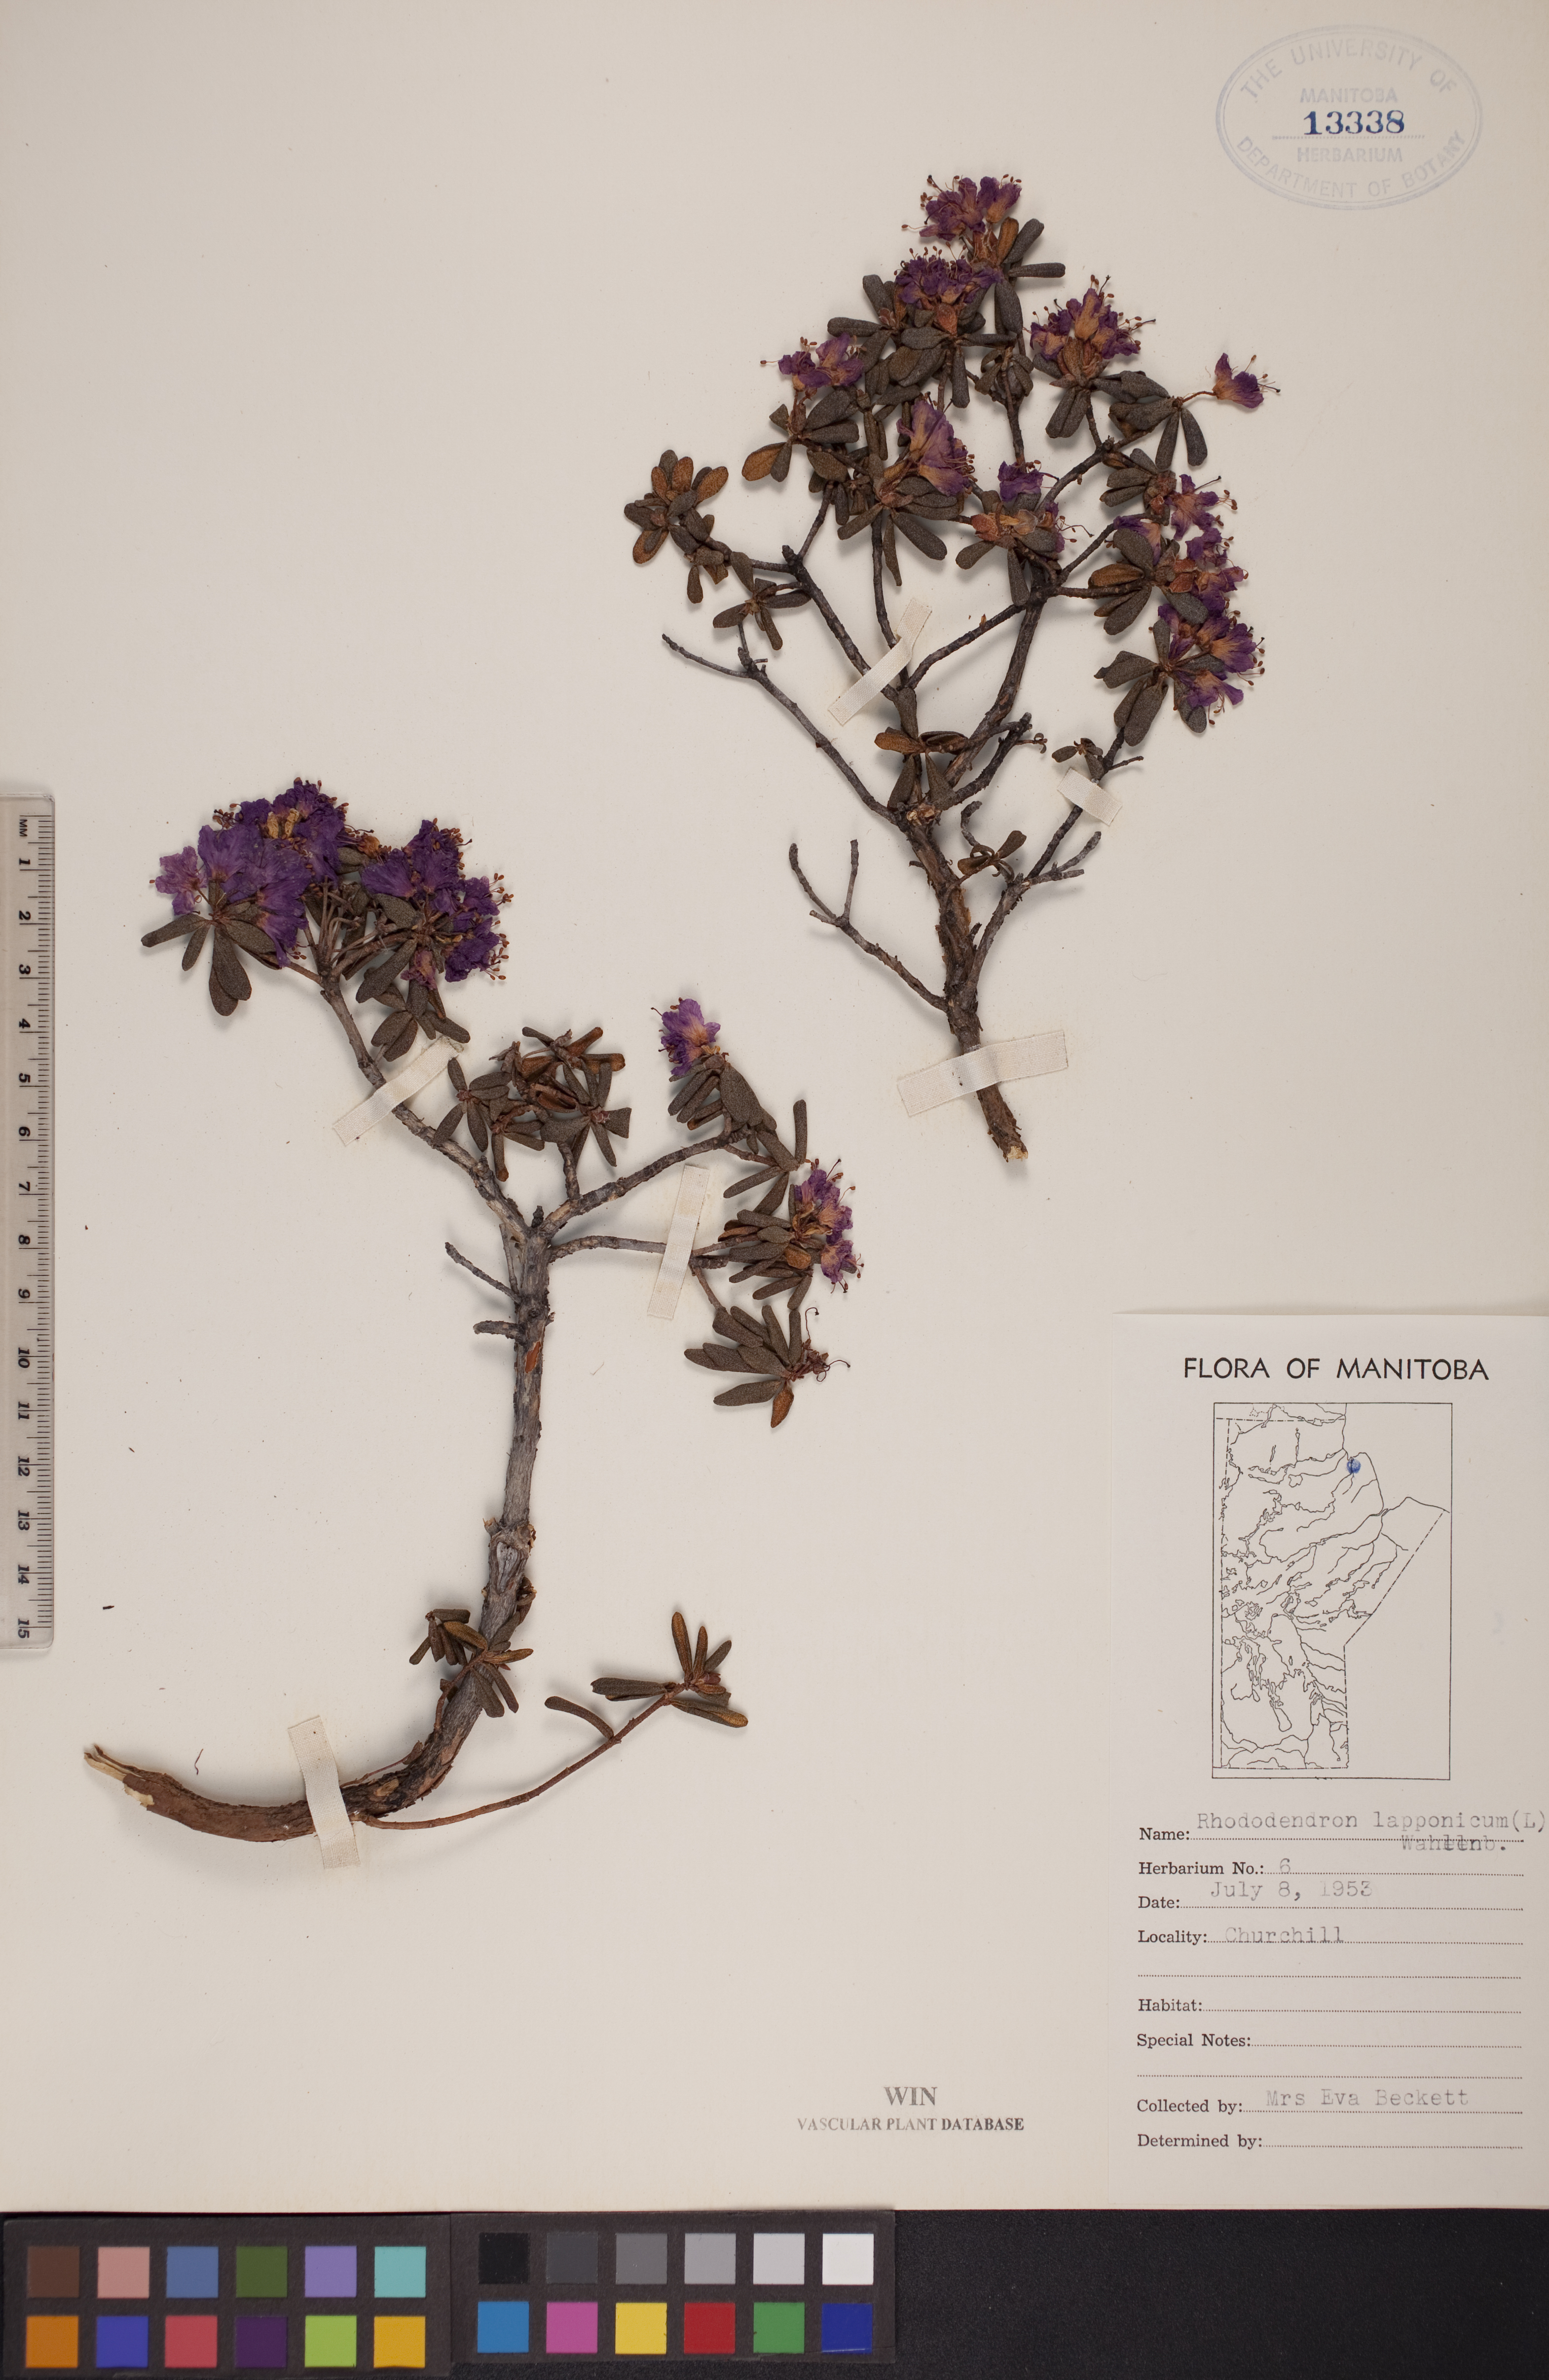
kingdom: Plantae
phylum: Tracheophyta
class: Magnoliopsida
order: Ericales
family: Ericaceae
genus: Rhododendron
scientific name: Rhododendron lapponicum
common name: Lapland rhododendron
